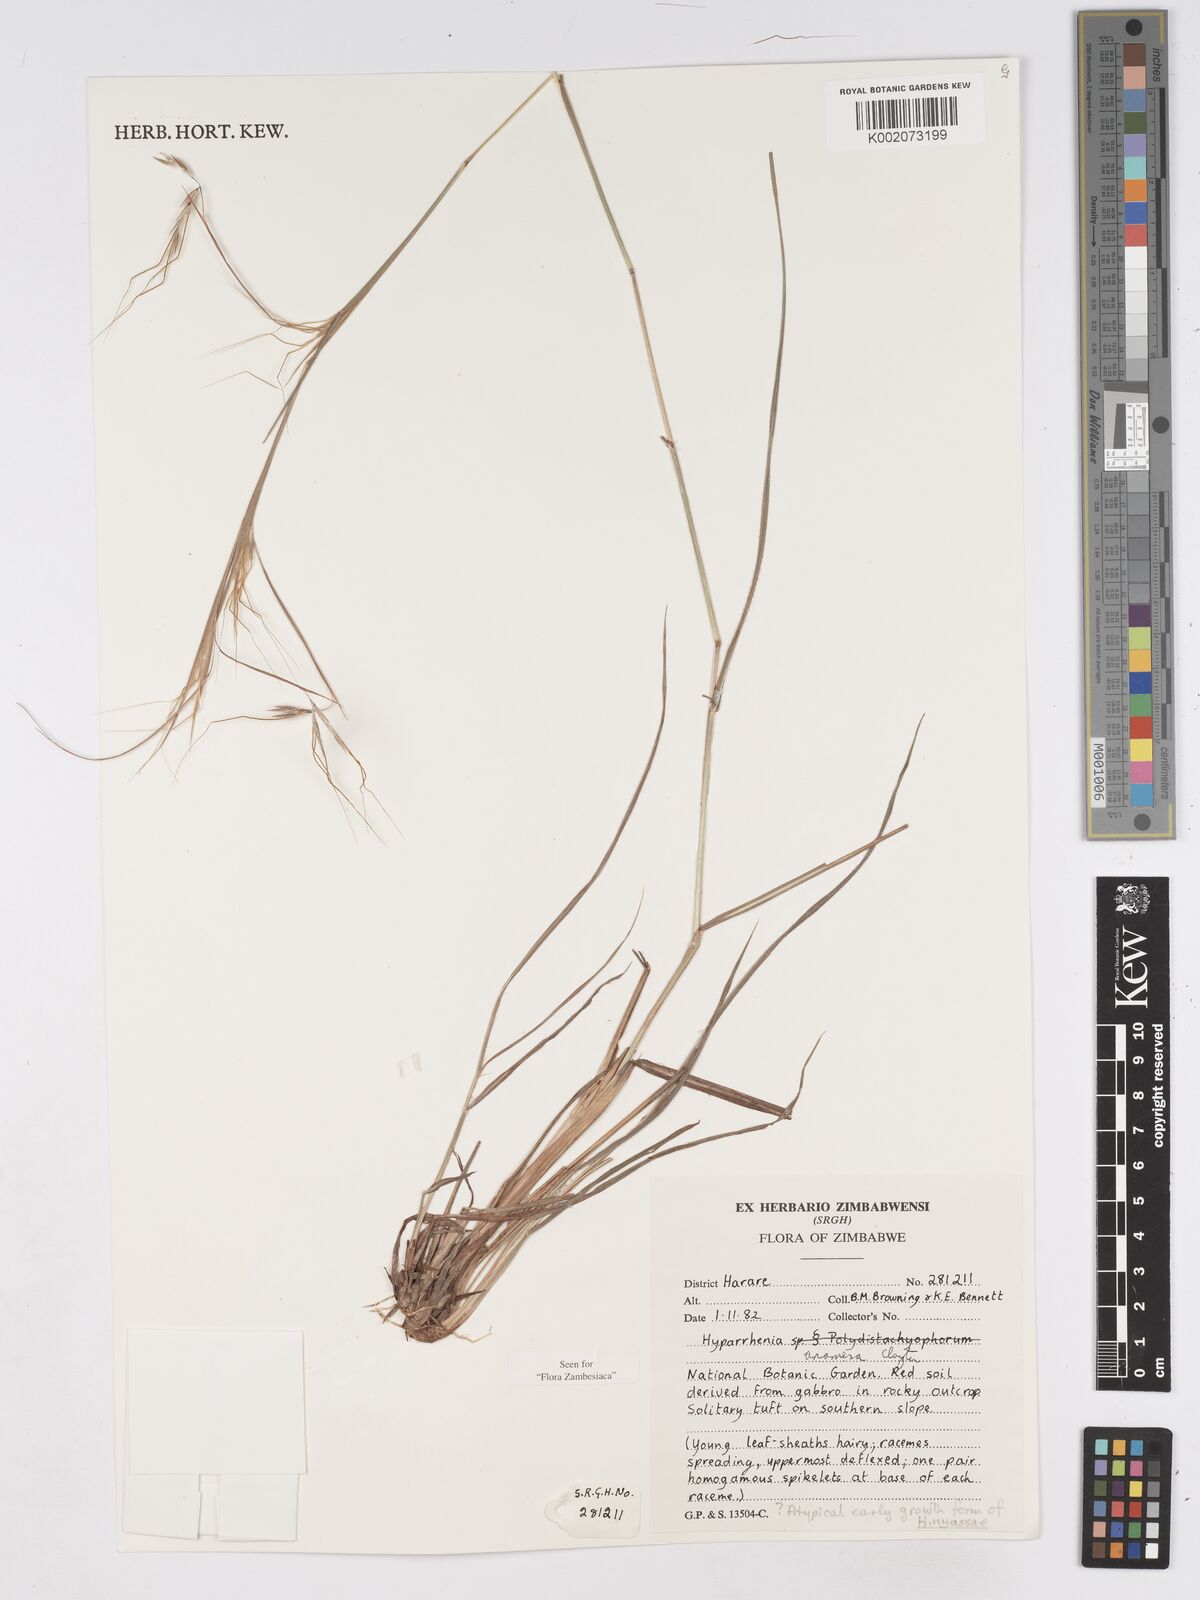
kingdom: Plantae
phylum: Tracheophyta
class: Liliopsida
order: Poales
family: Poaceae
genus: Hyparrhenia
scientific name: Hyparrhenia anamesa
